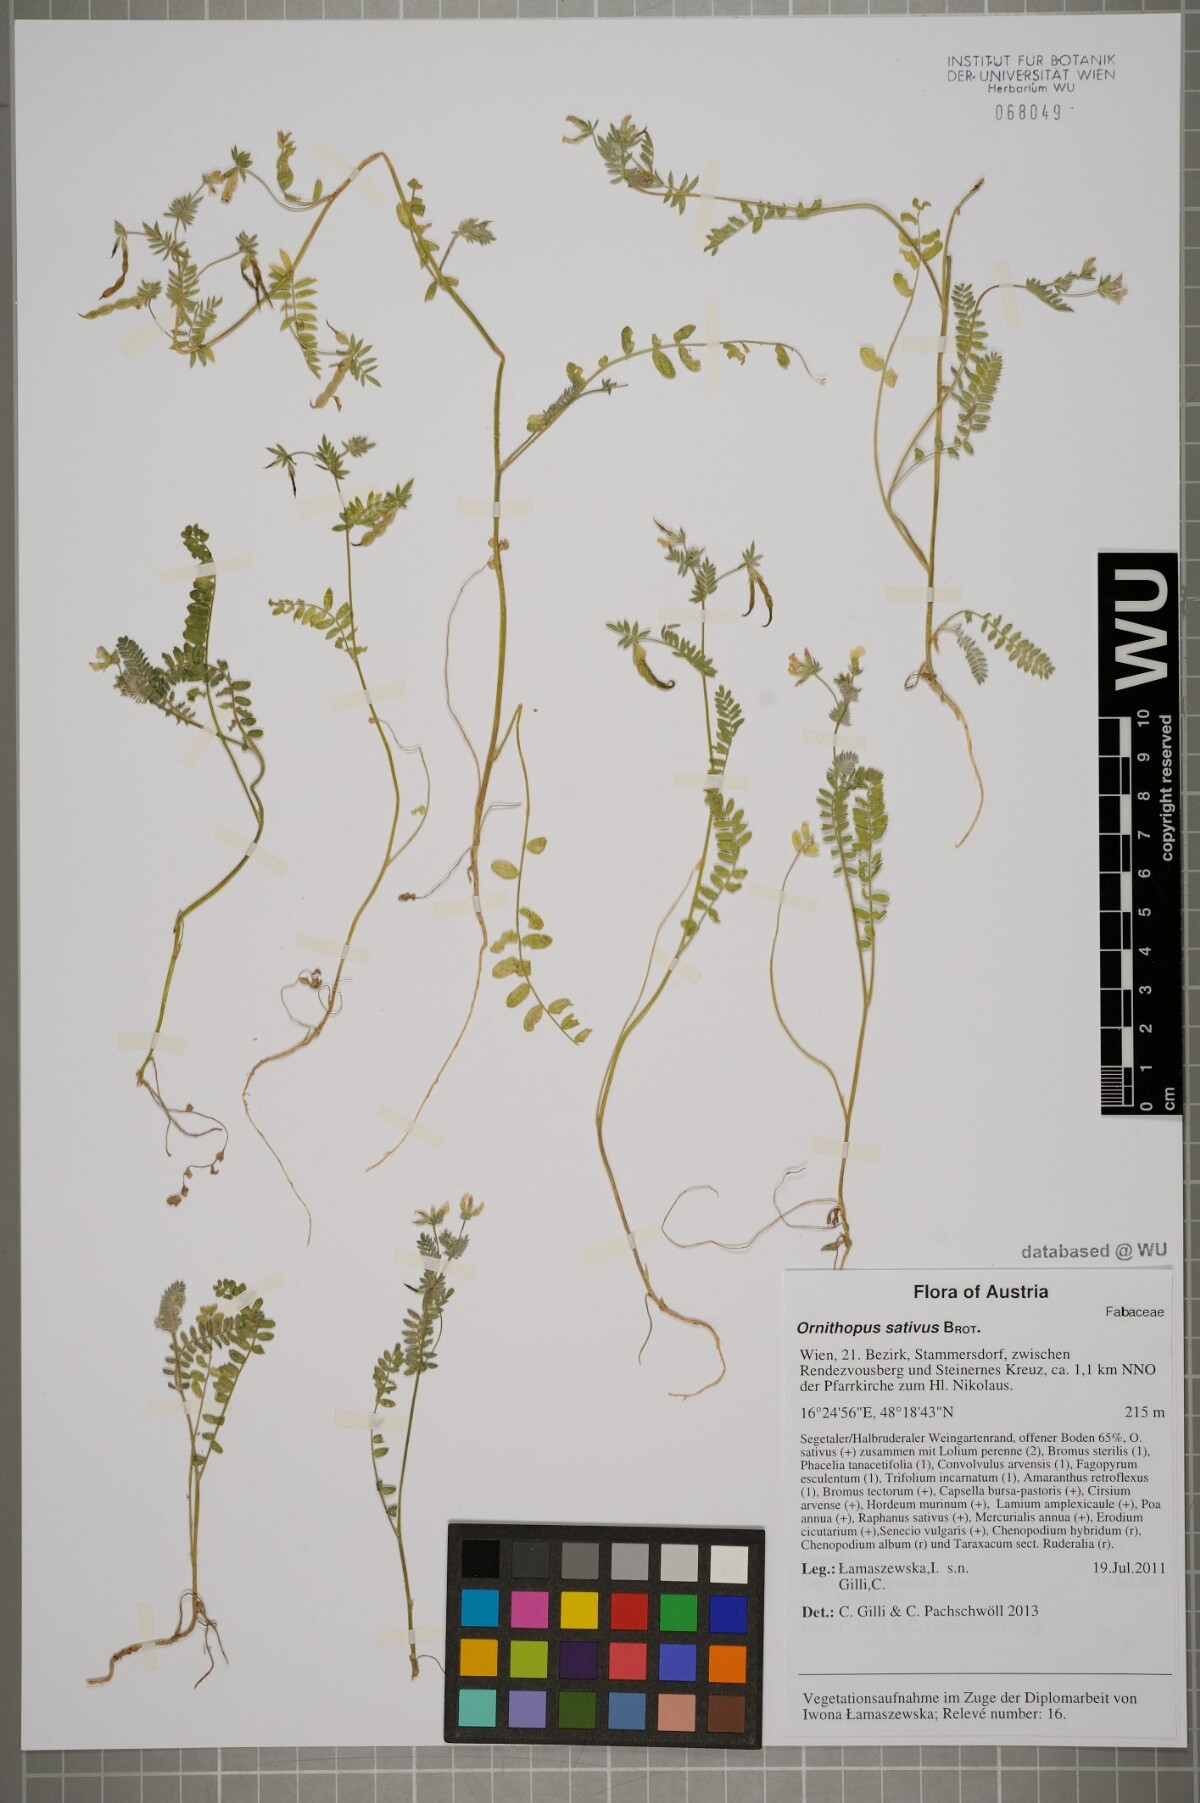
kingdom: Plantae
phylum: Tracheophyta
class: Magnoliopsida
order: Fabales
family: Fabaceae
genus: Ornithopus
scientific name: Ornithopus sativus
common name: Serradella
